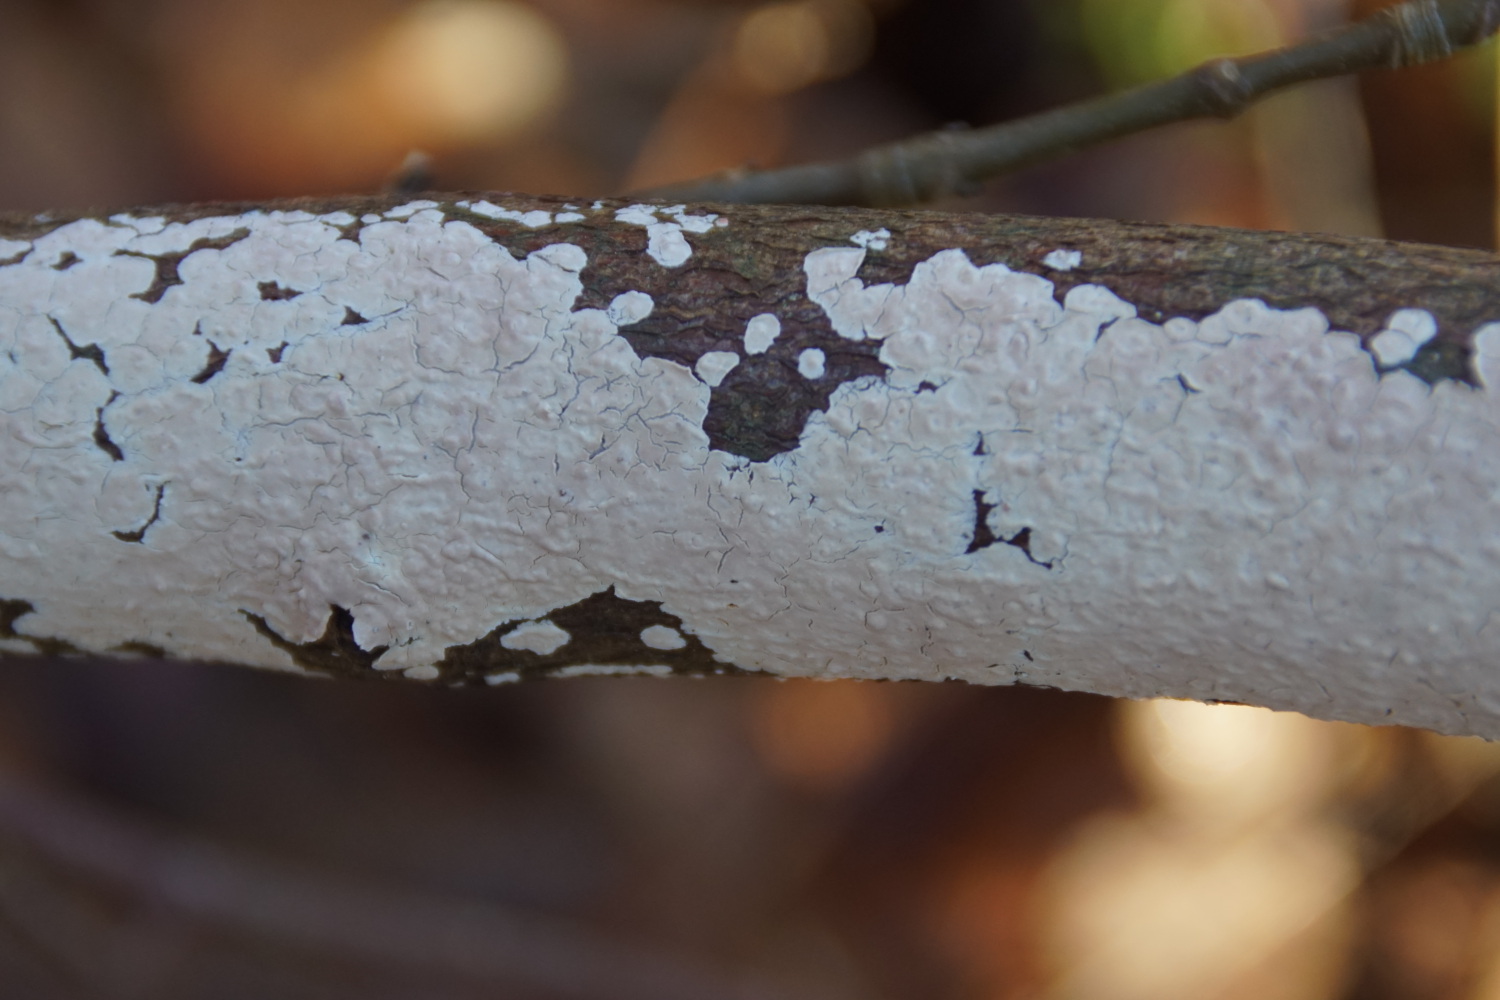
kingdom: Fungi
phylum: Basidiomycota
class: Agaricomycetes
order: Agaricales
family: Physalacriaceae
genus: Cylindrobasidium
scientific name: Cylindrobasidium evolvens
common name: sprækkehinde
